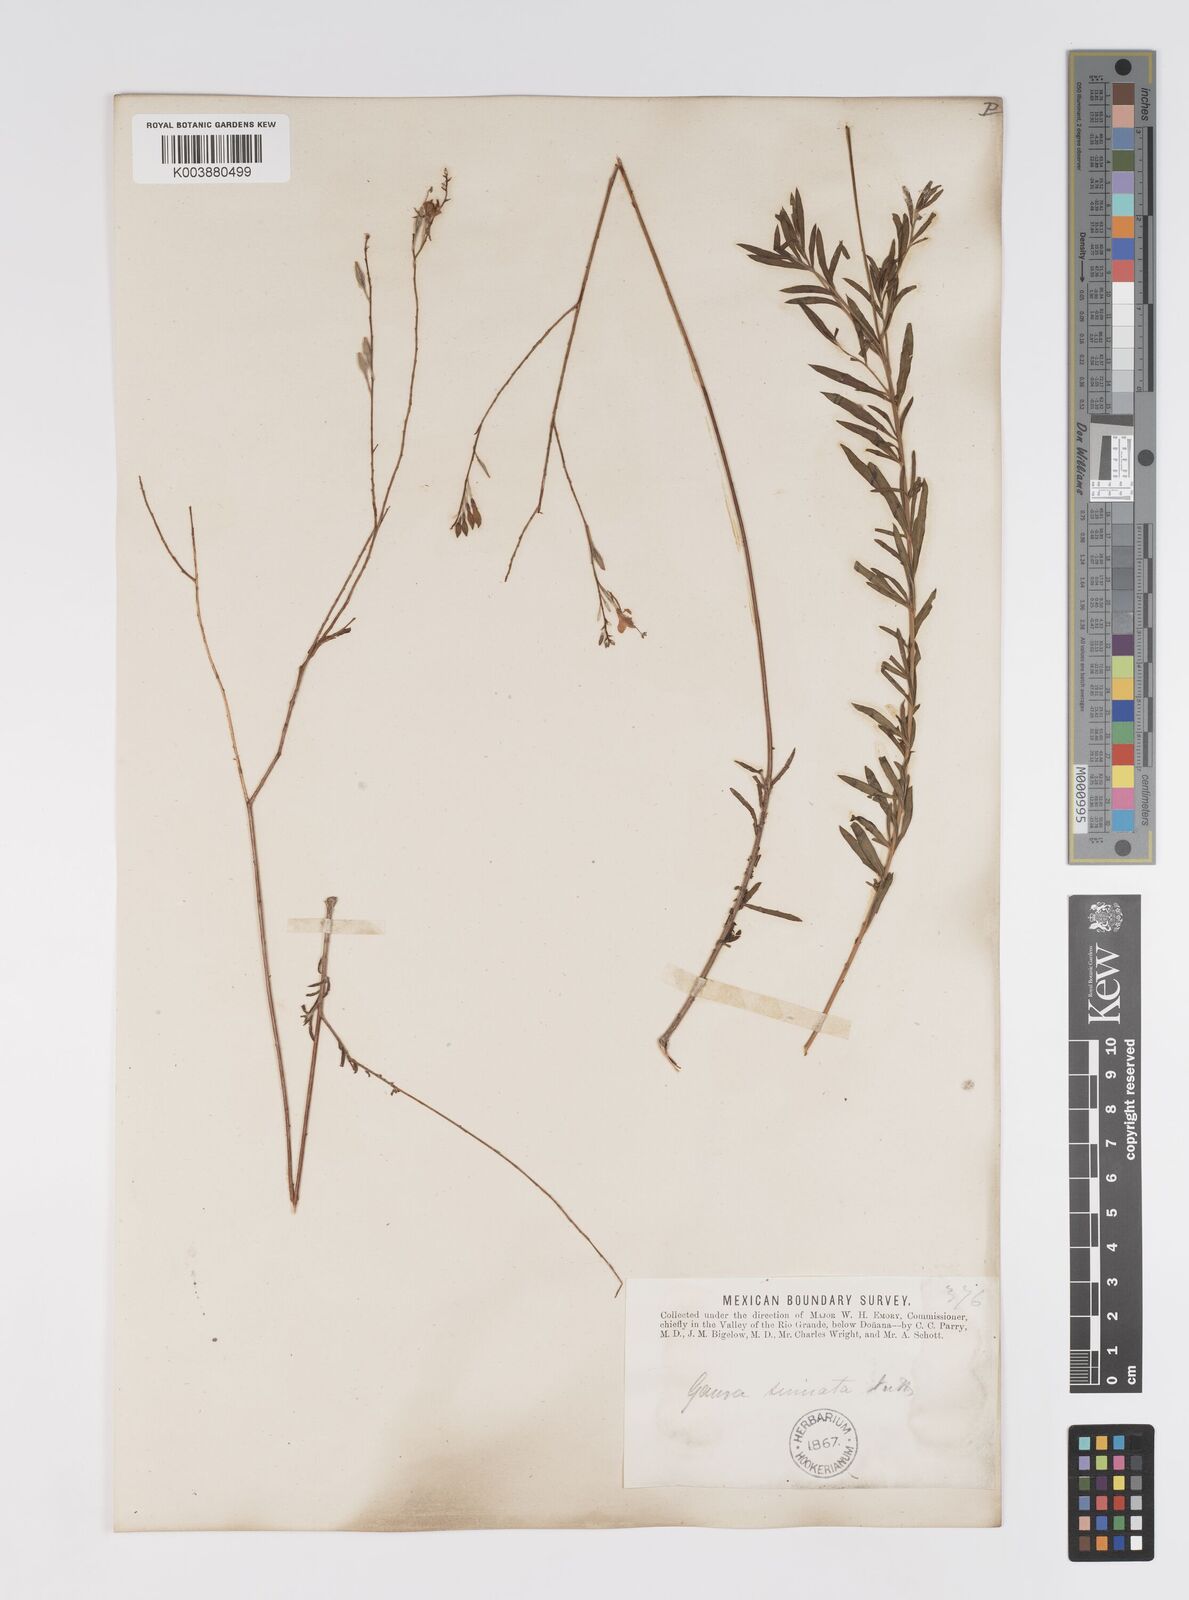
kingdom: Plantae
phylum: Tracheophyta
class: Magnoliopsida
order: Myrtales
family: Onagraceae
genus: Oenothera
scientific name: Oenothera sinuosa
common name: Wavyleaf beeblossom
